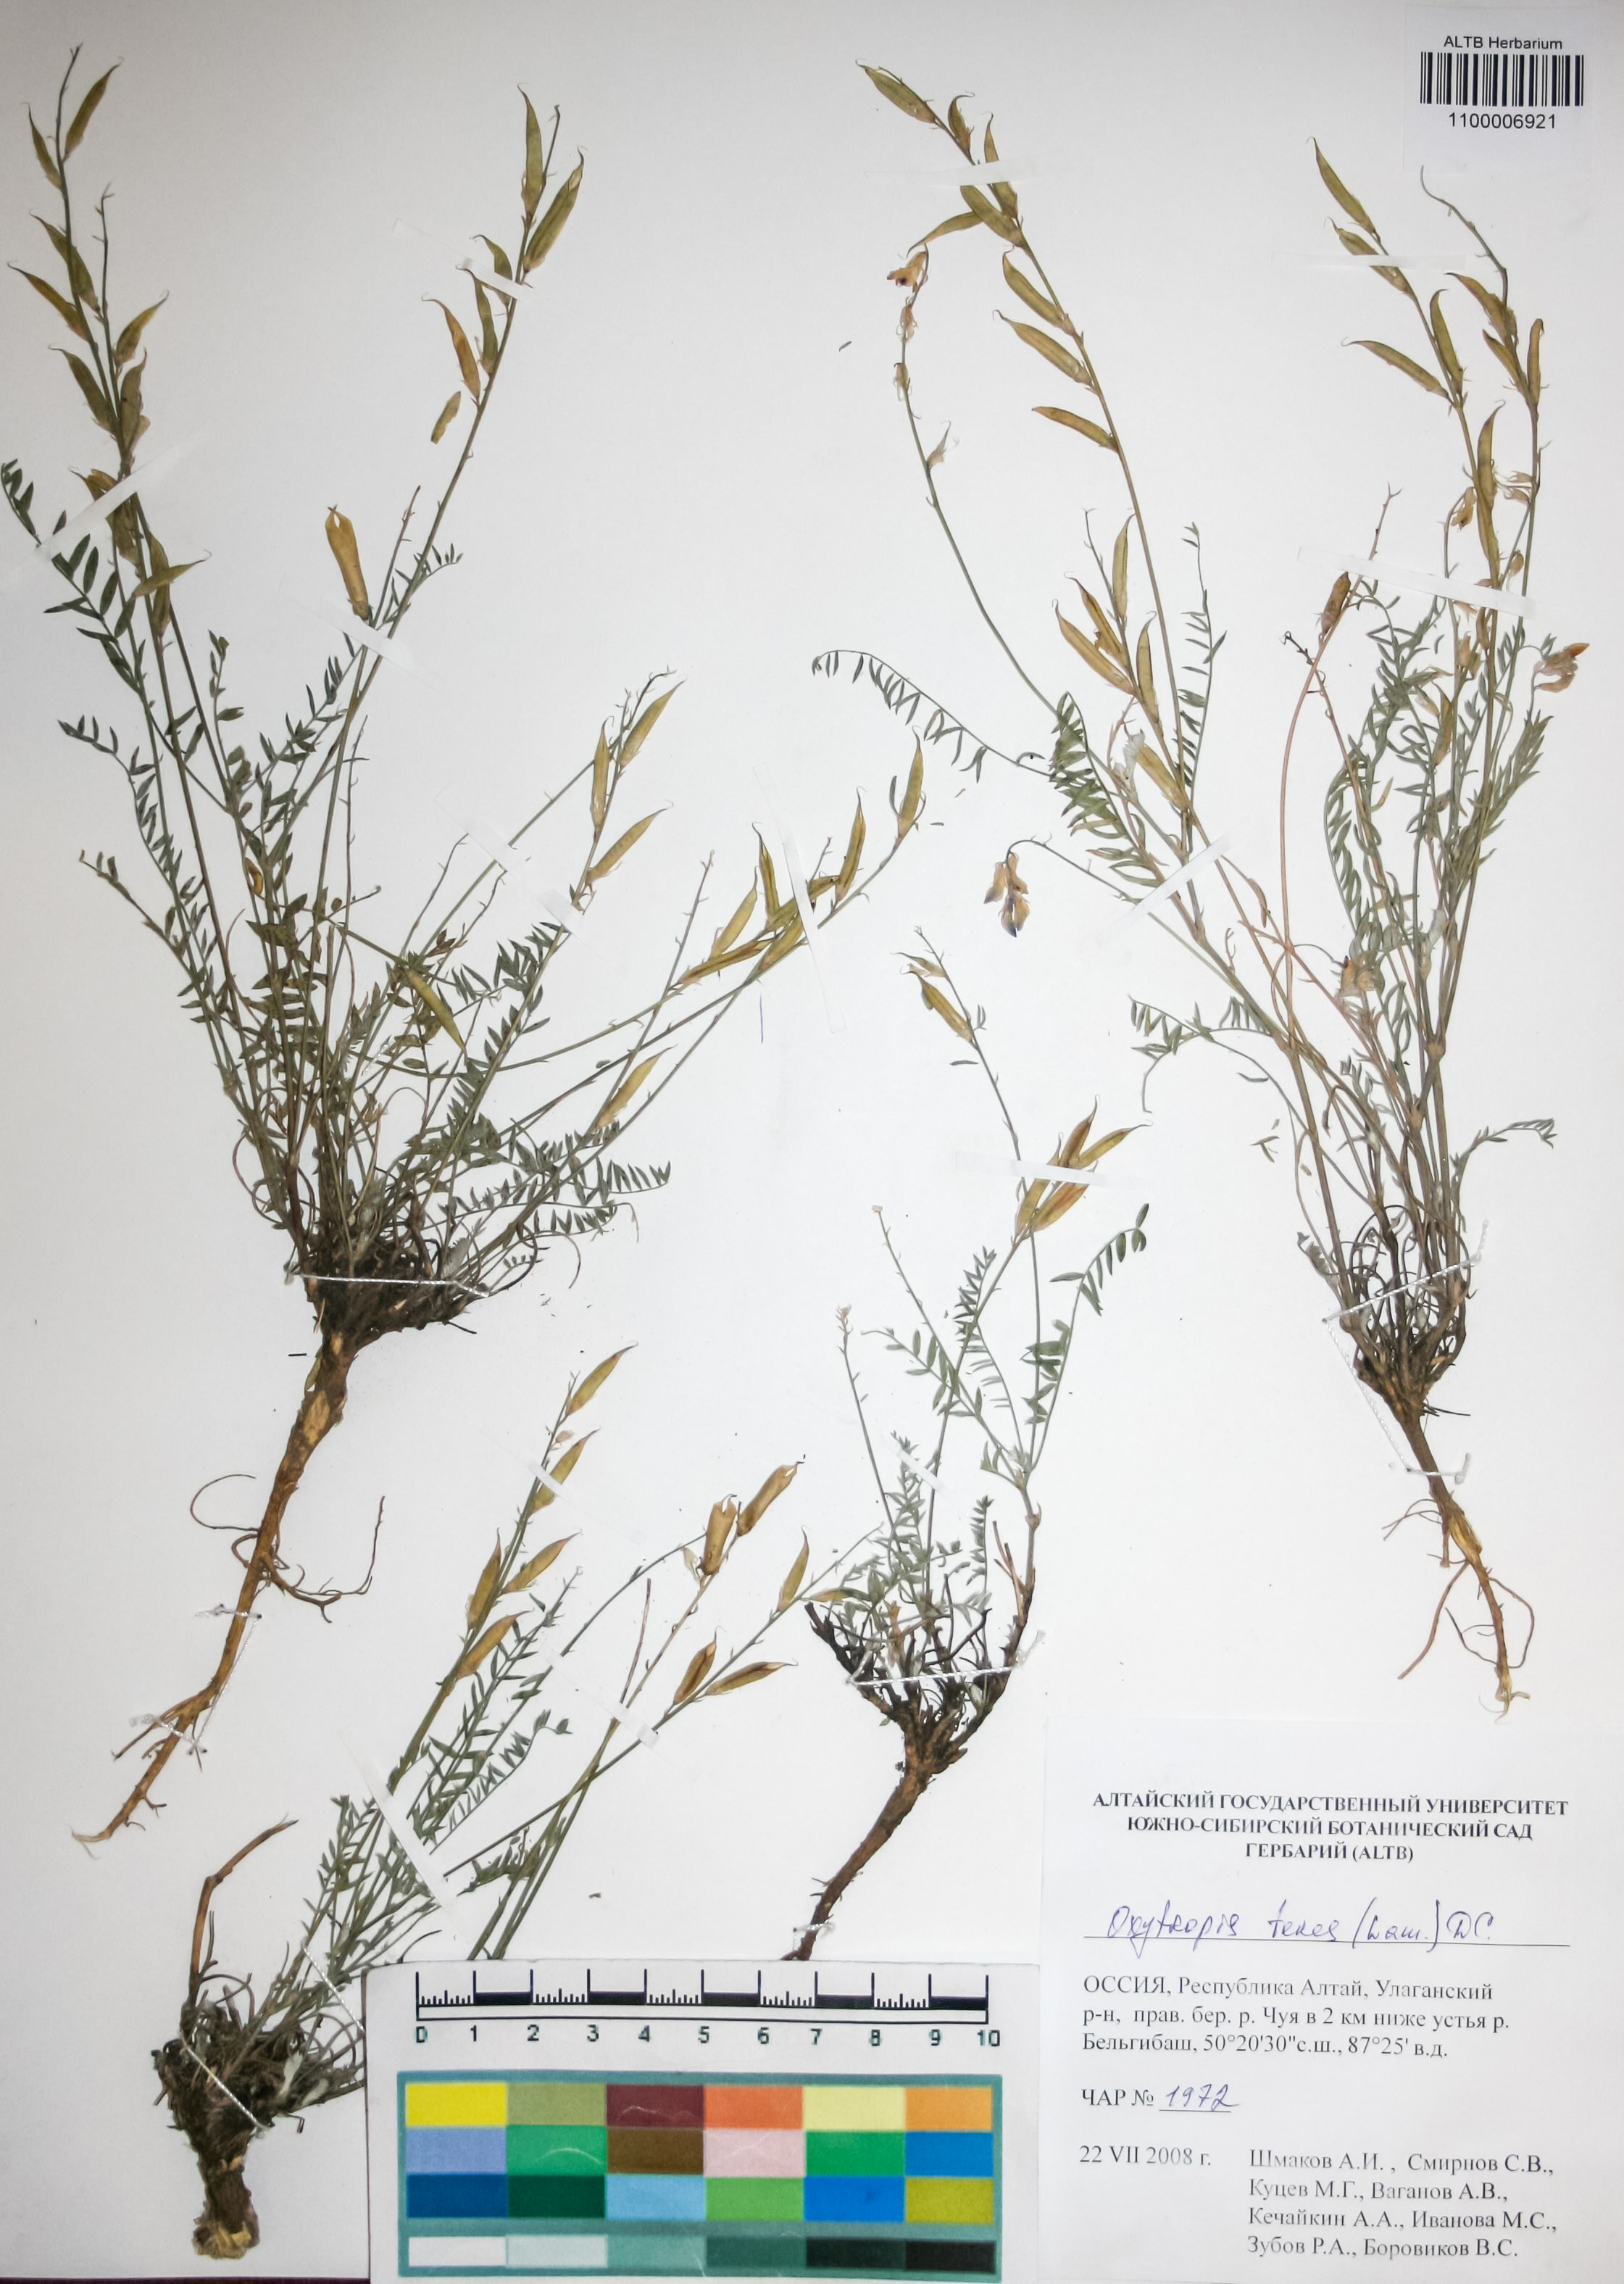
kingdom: Plantae
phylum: Tracheophyta
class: Magnoliopsida
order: Fabales
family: Fabaceae
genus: Oxytropis
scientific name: Oxytropis teres
